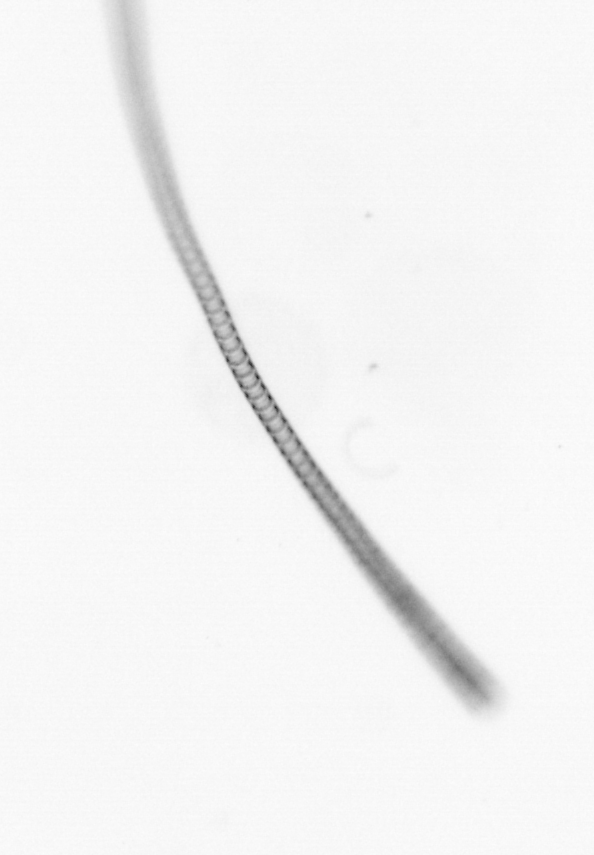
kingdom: Chromista
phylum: Ochrophyta
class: Bacillariophyceae
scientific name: Bacillariophyceae
